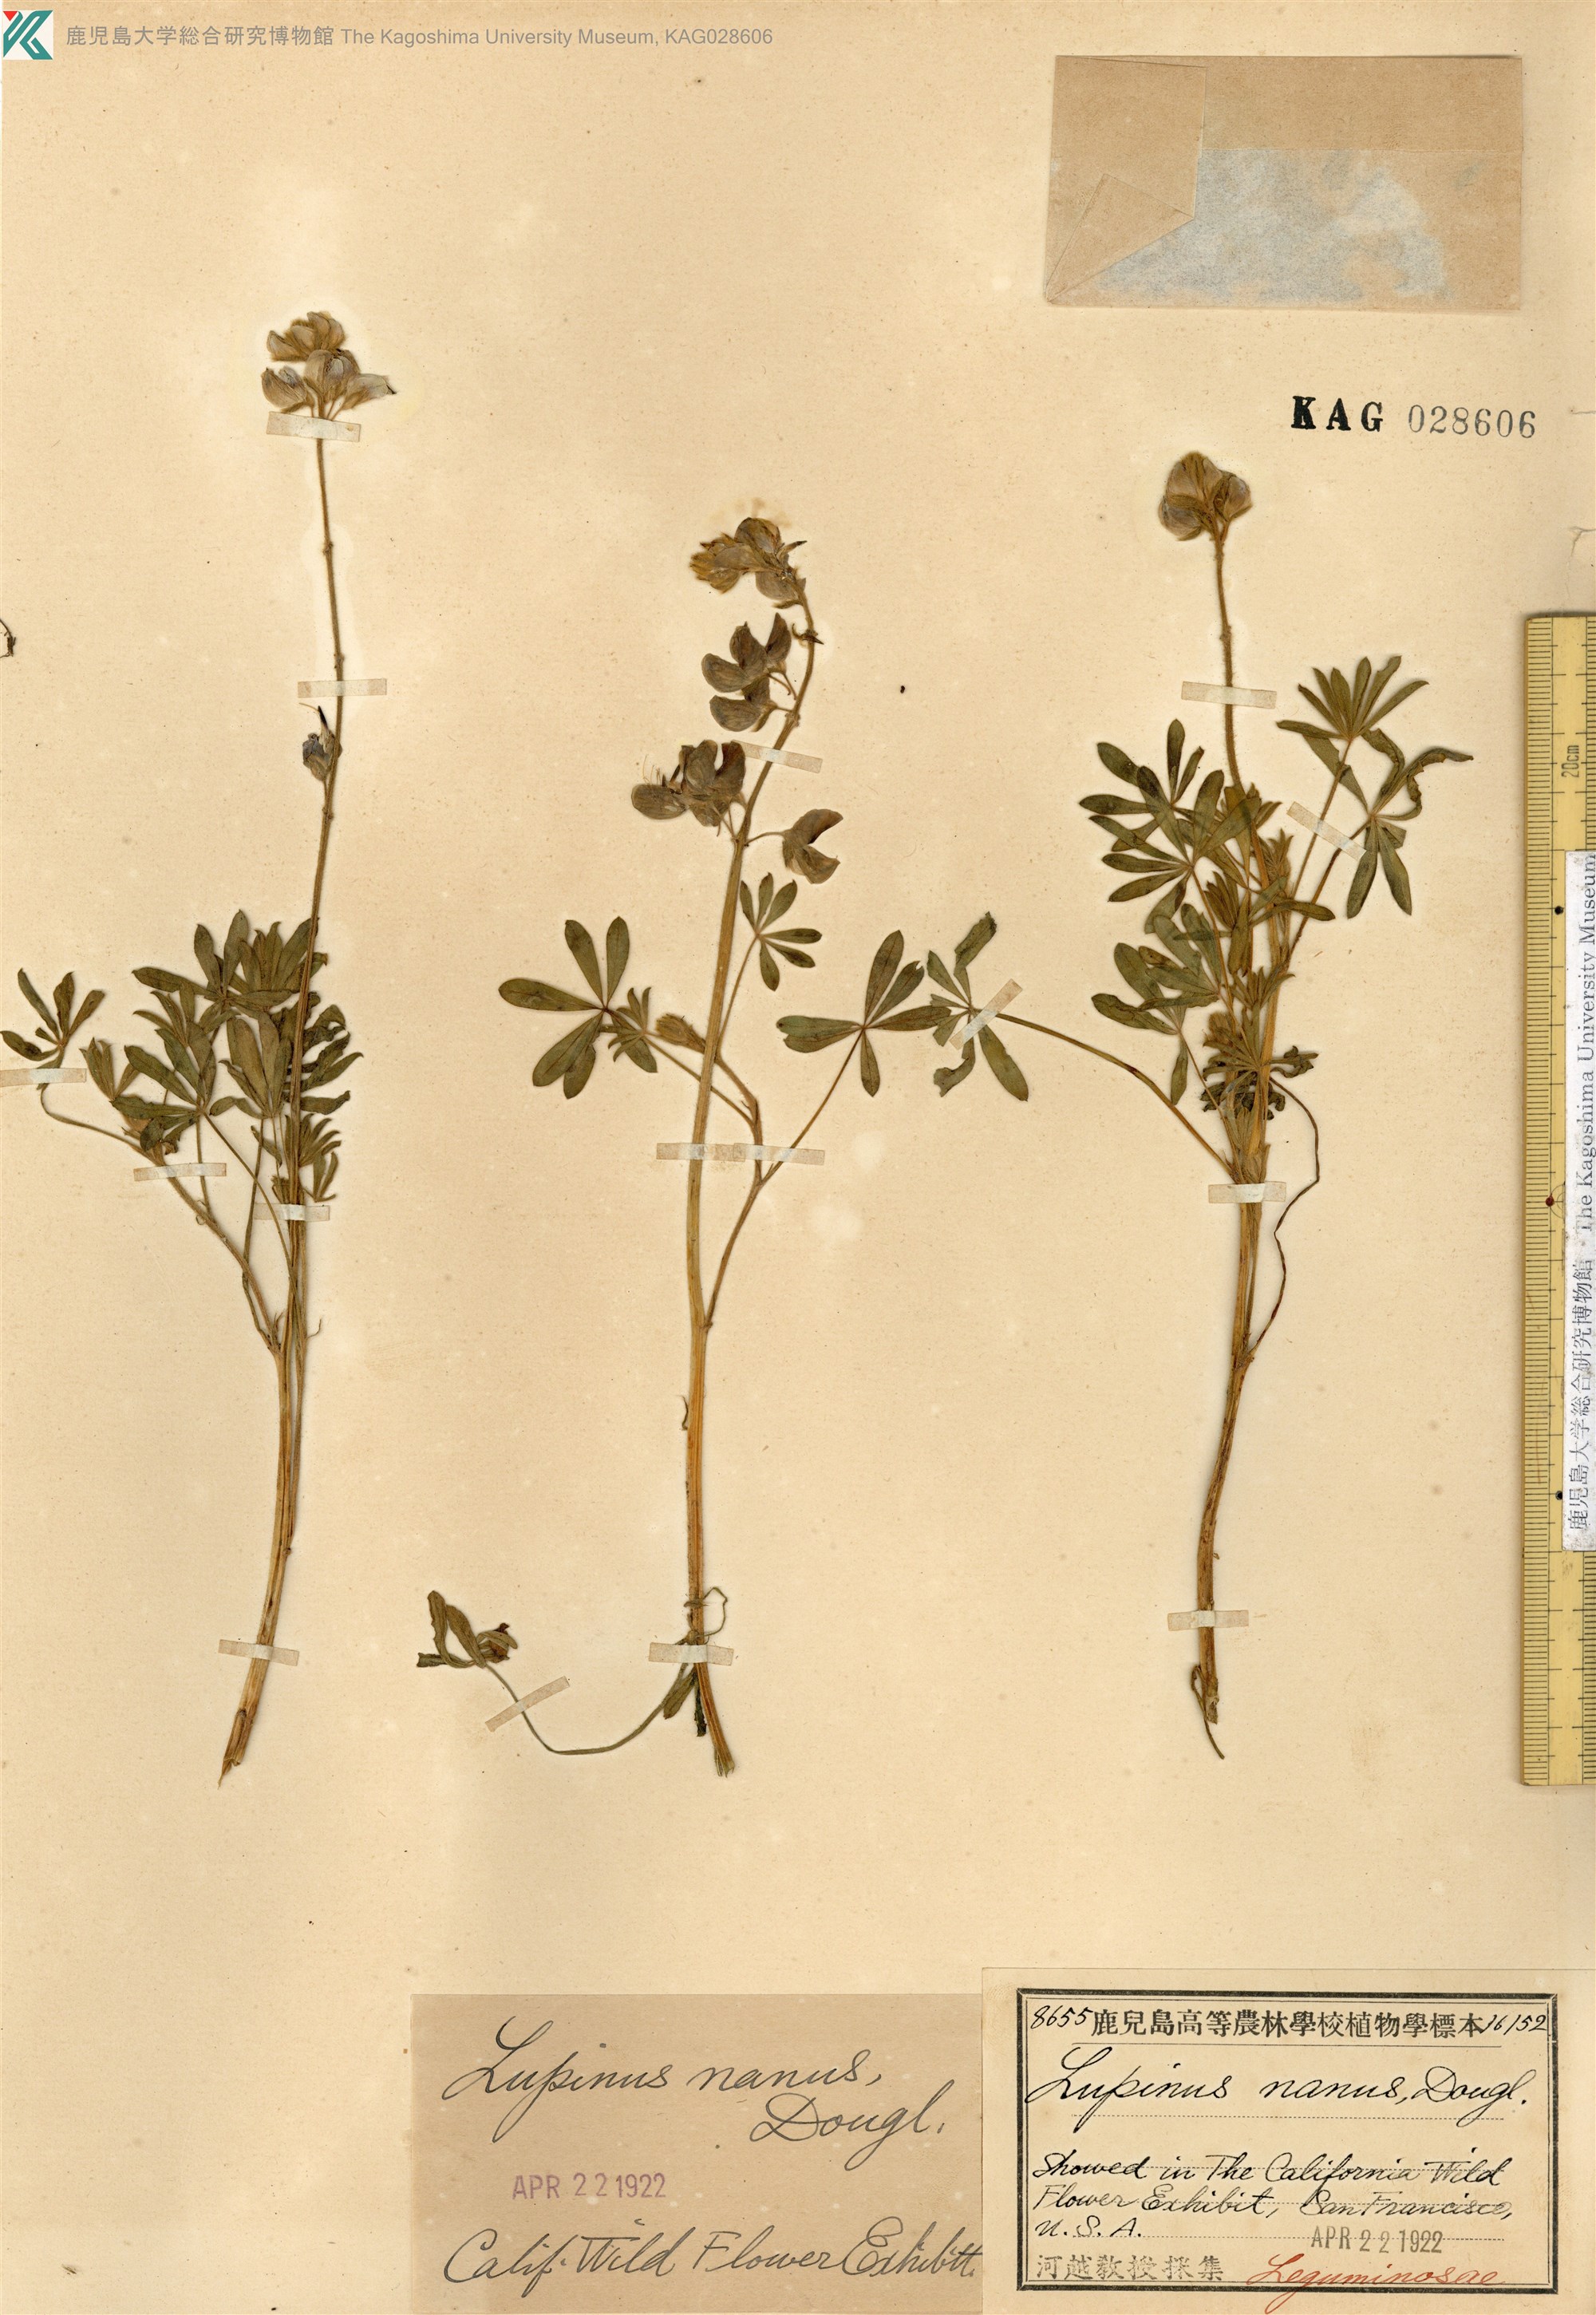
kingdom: Plantae
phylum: Tracheophyta
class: Magnoliopsida
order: Fabales
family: Fabaceae
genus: Lupinus
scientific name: Lupinus nanus
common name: Orean blue lupin
